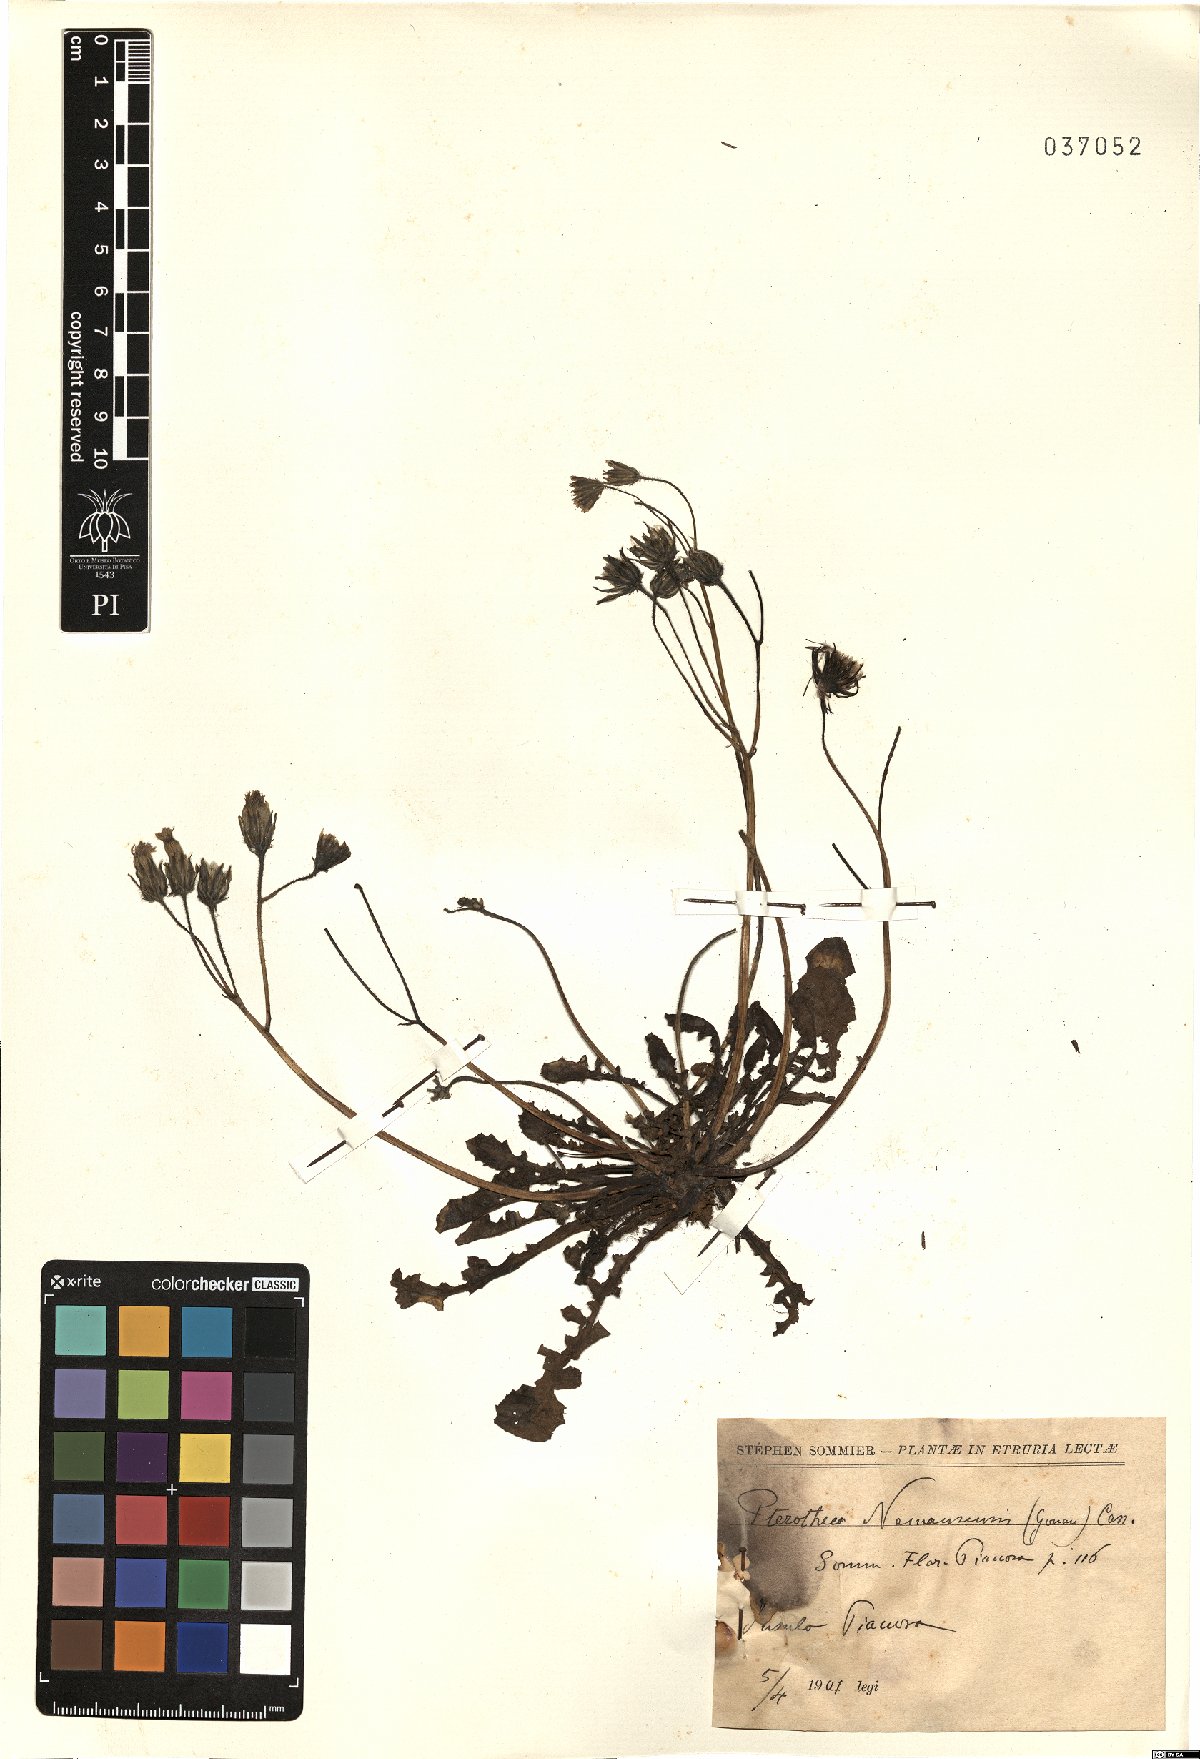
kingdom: Plantae
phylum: Tracheophyta
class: Magnoliopsida
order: Asterales
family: Asteraceae
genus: Crepis
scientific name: Crepis sancta
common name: Hawk's-beard
